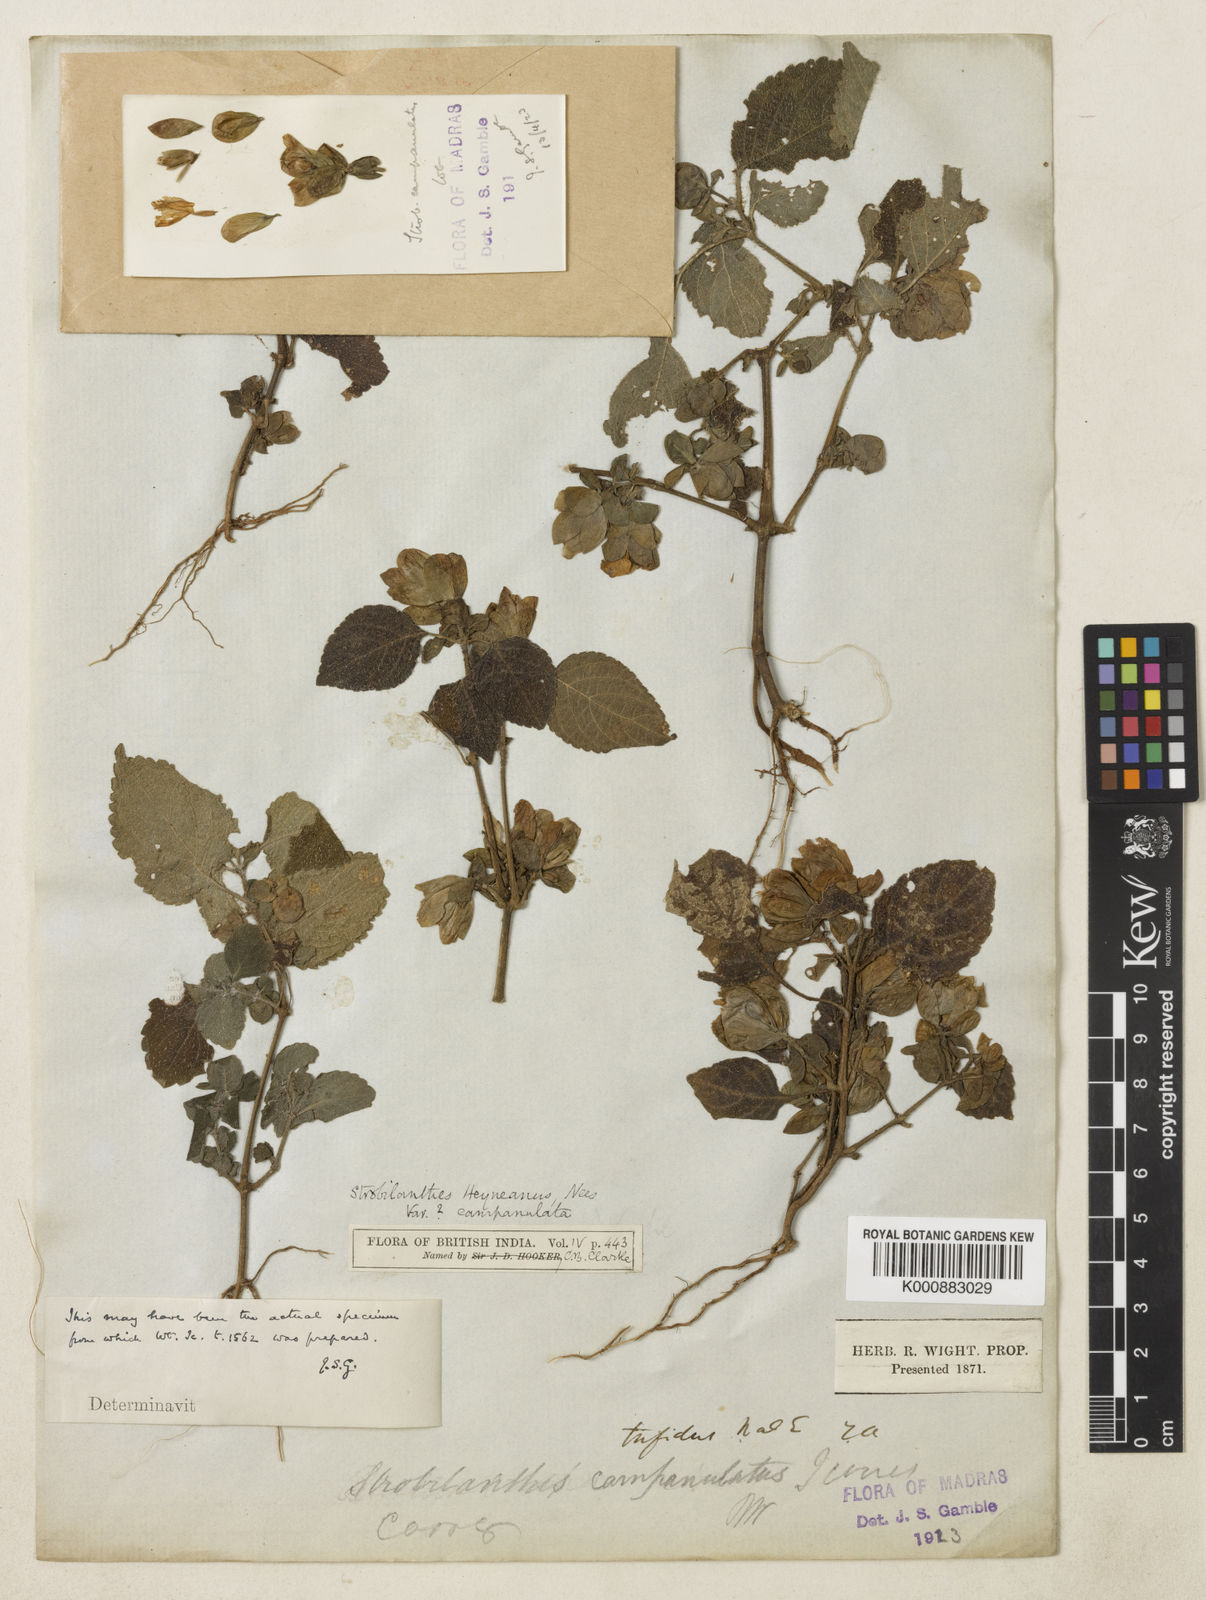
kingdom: Plantae
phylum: Tracheophyta
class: Magnoliopsida
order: Lamiales
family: Acanthaceae
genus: Strobilanthes
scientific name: Strobilanthes heyneana
